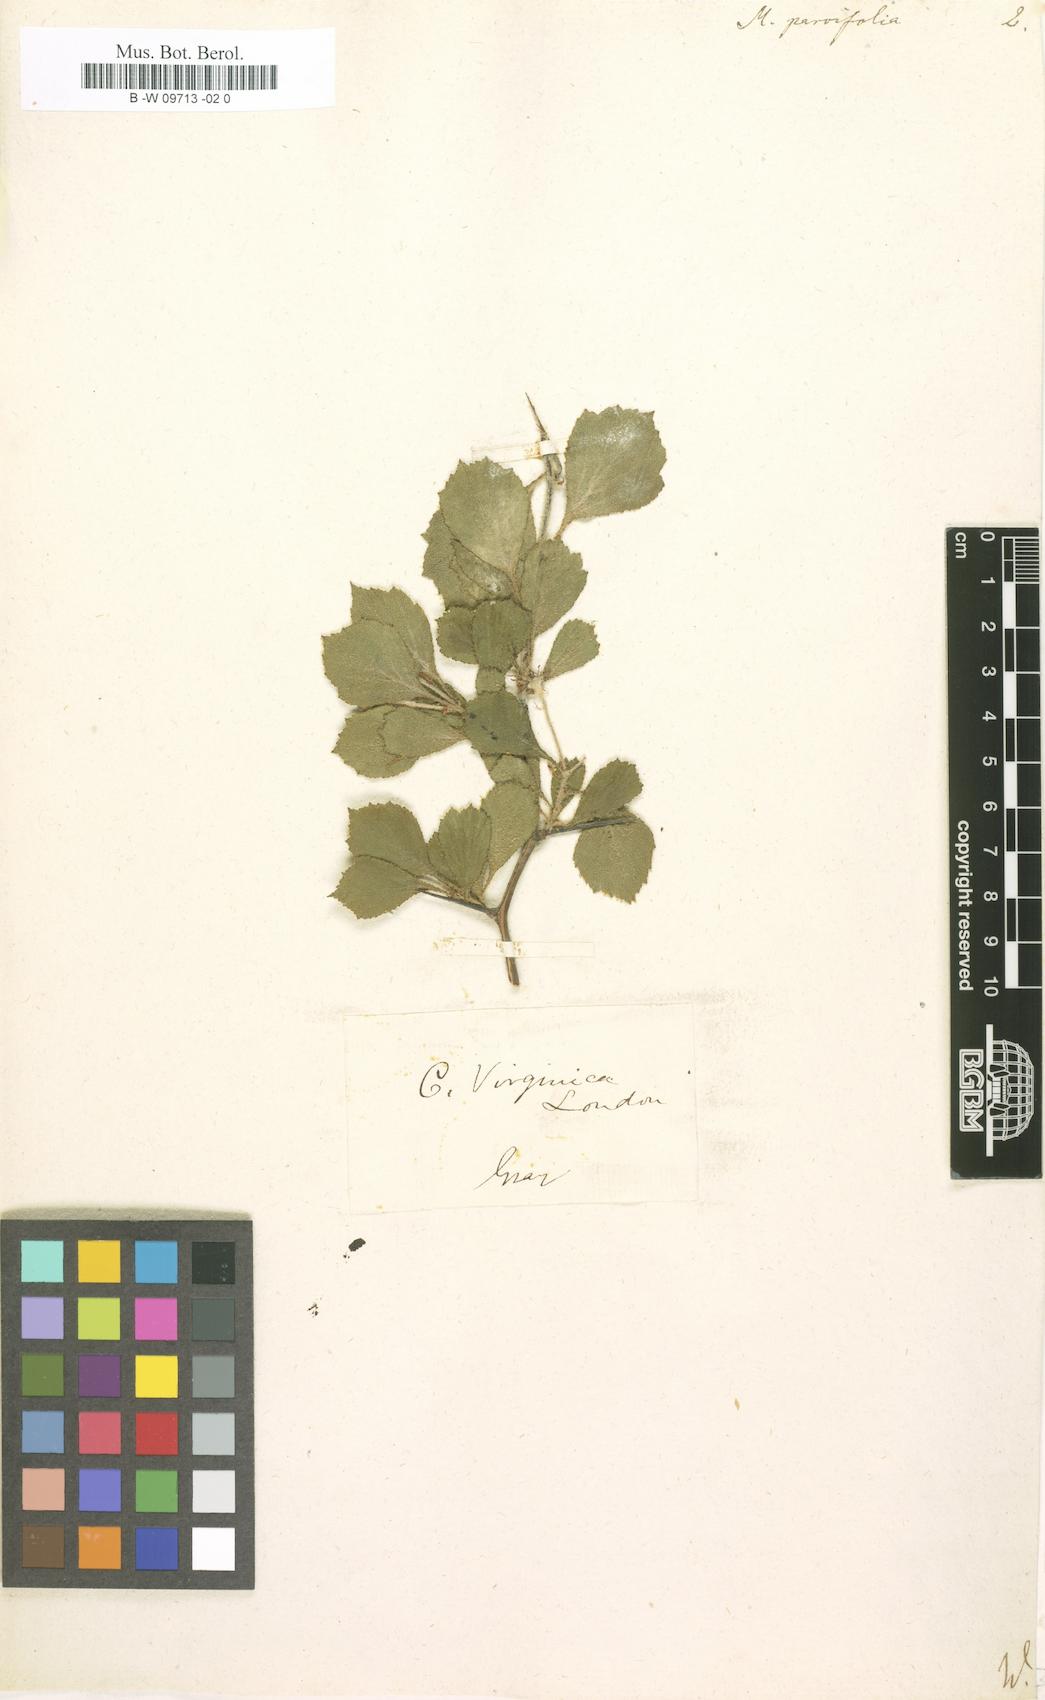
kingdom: Plantae
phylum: Tracheophyta
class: Magnoliopsida
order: Rosales
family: Rosaceae
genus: Crataegus
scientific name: Crataegus uniflora
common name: One-flower hawthorn
